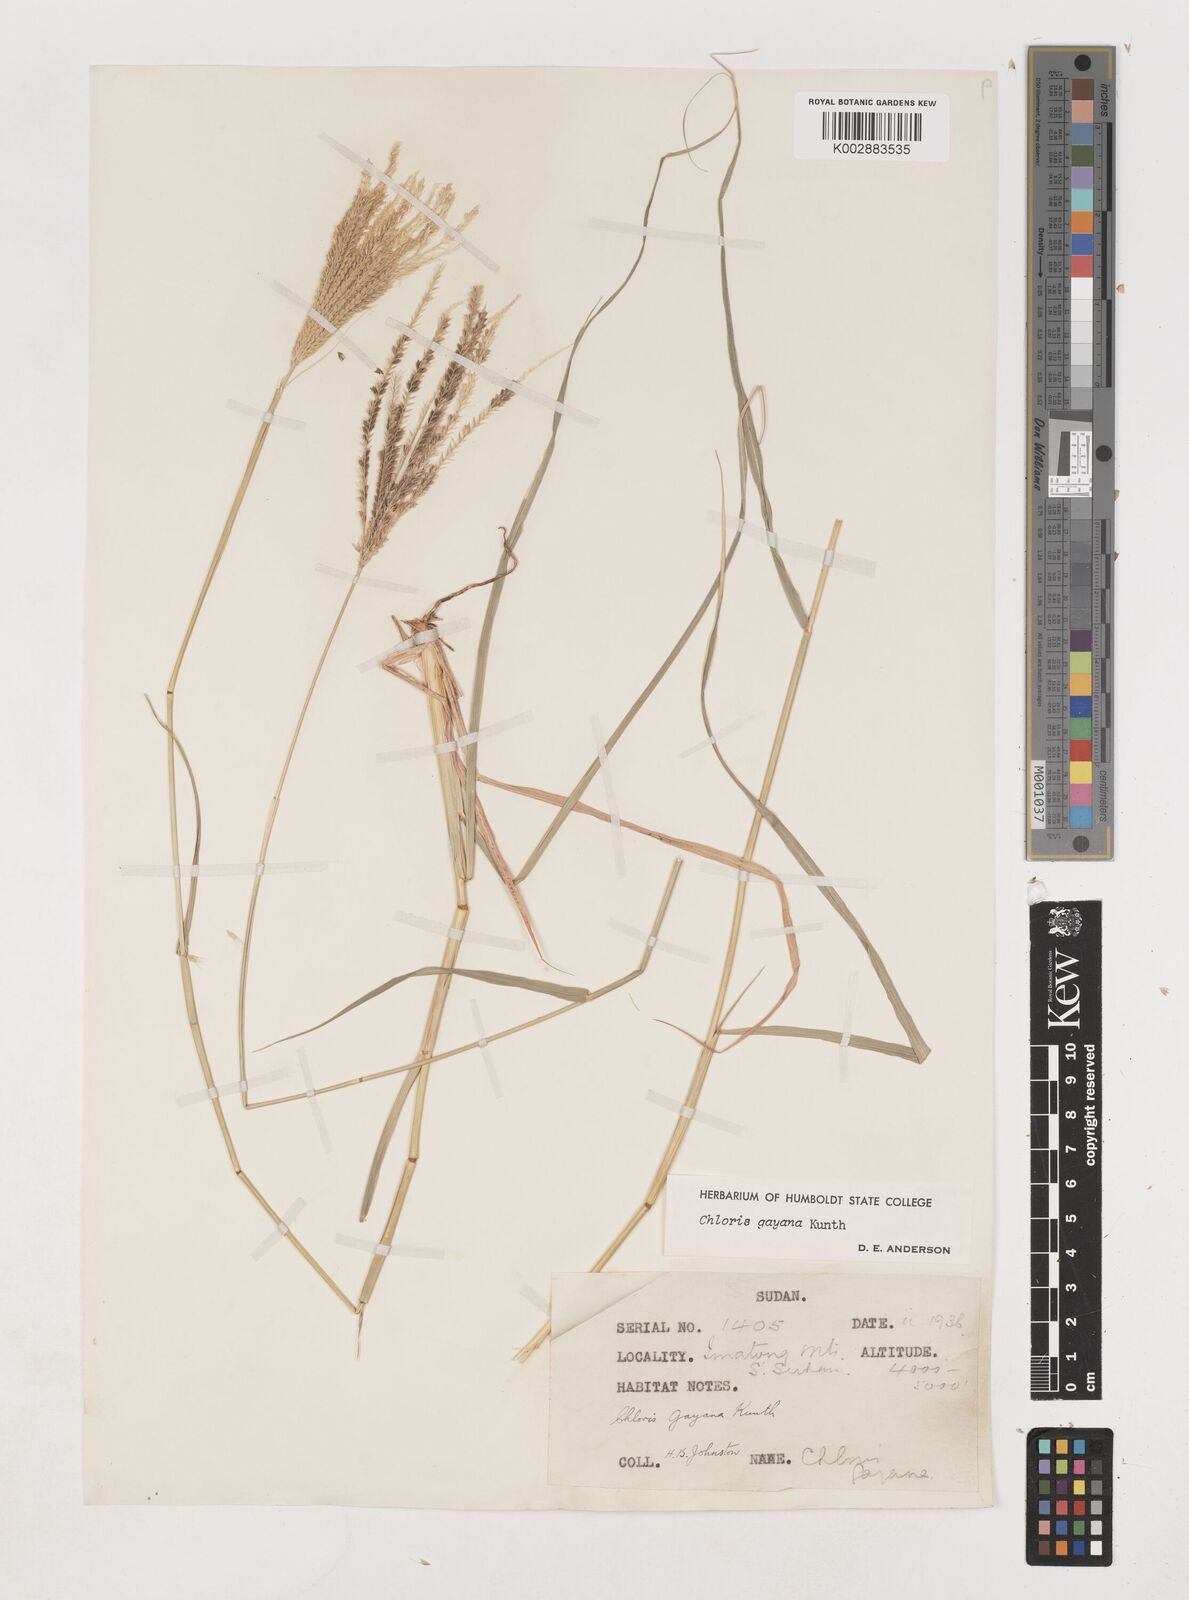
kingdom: Plantae
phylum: Tracheophyta
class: Liliopsida
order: Poales
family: Poaceae
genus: Chloris
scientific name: Chloris gayana
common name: Rhodes grass
